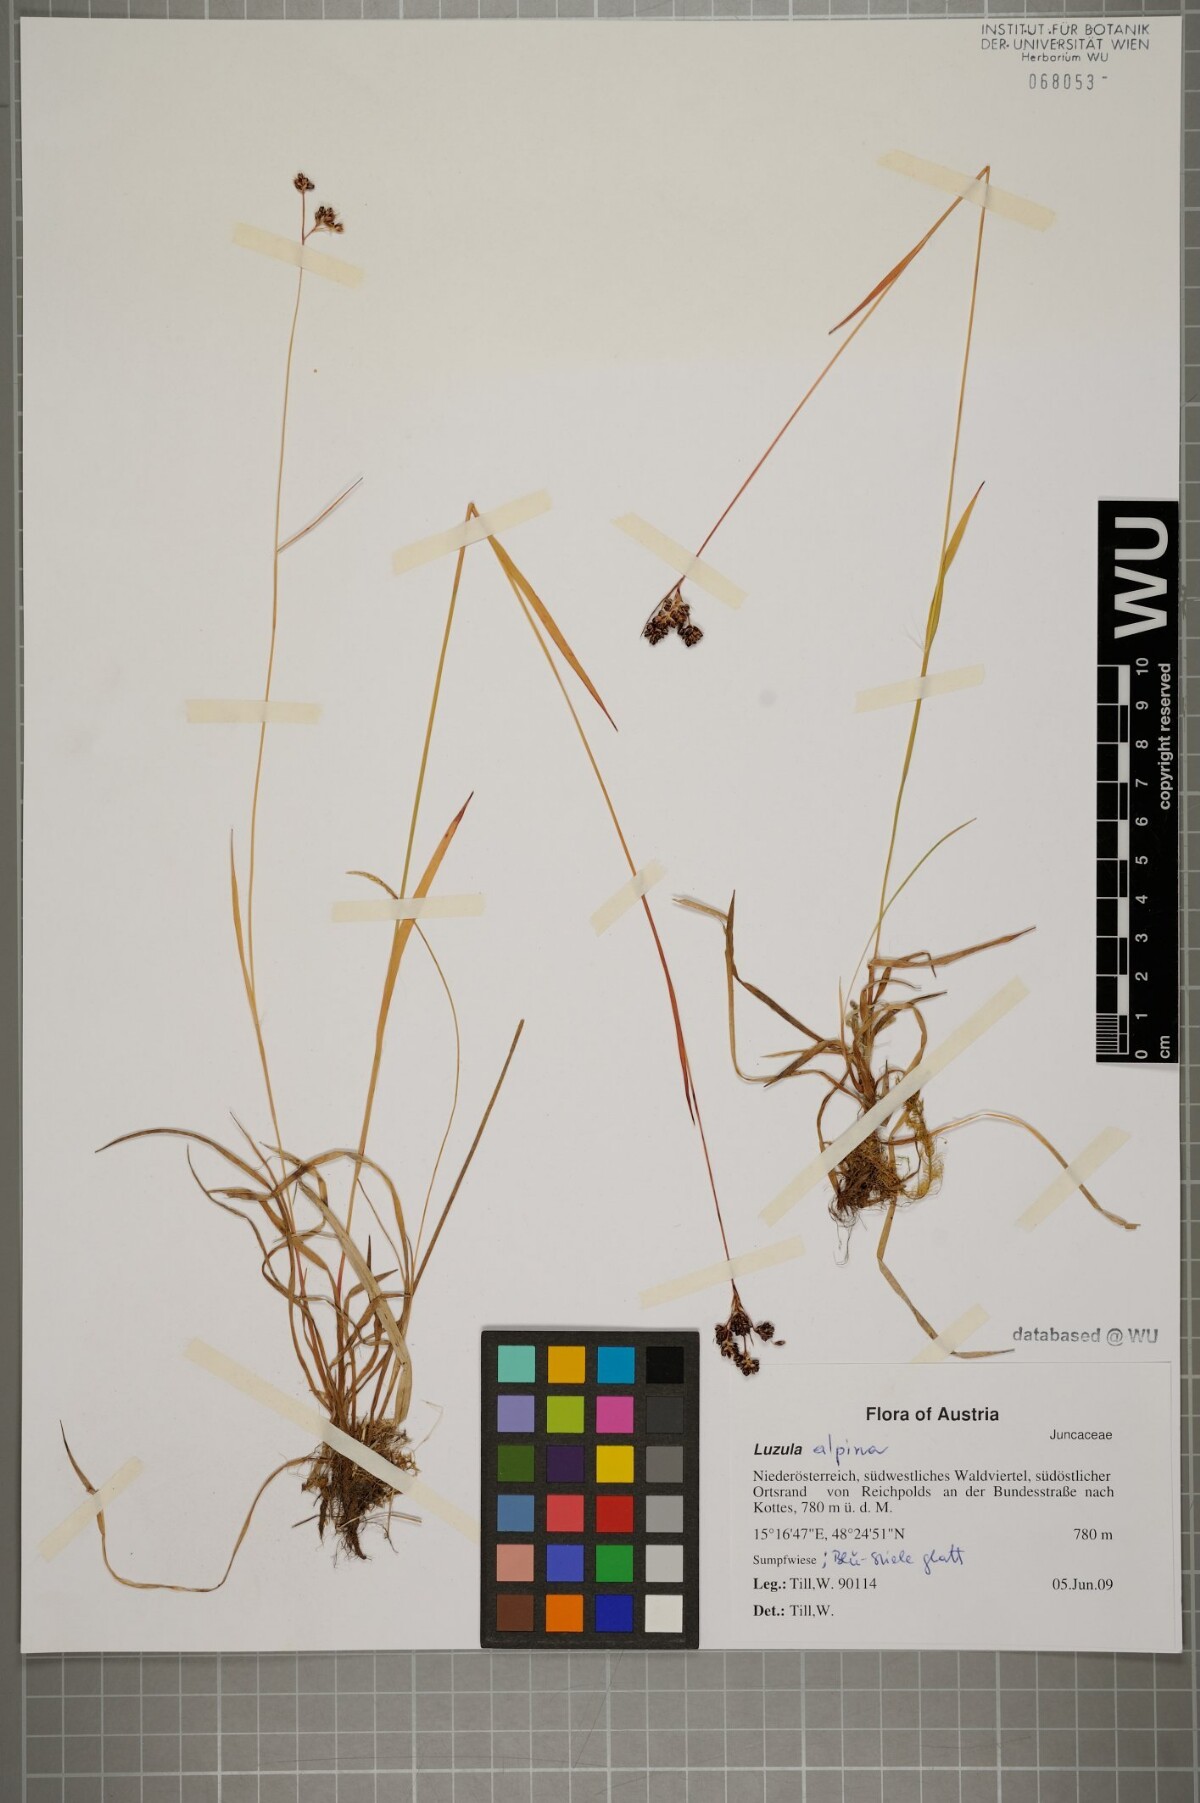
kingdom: Plantae
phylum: Tracheophyta
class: Liliopsida
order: Poales
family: Juncaceae
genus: Luzula
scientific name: Luzula alpina
